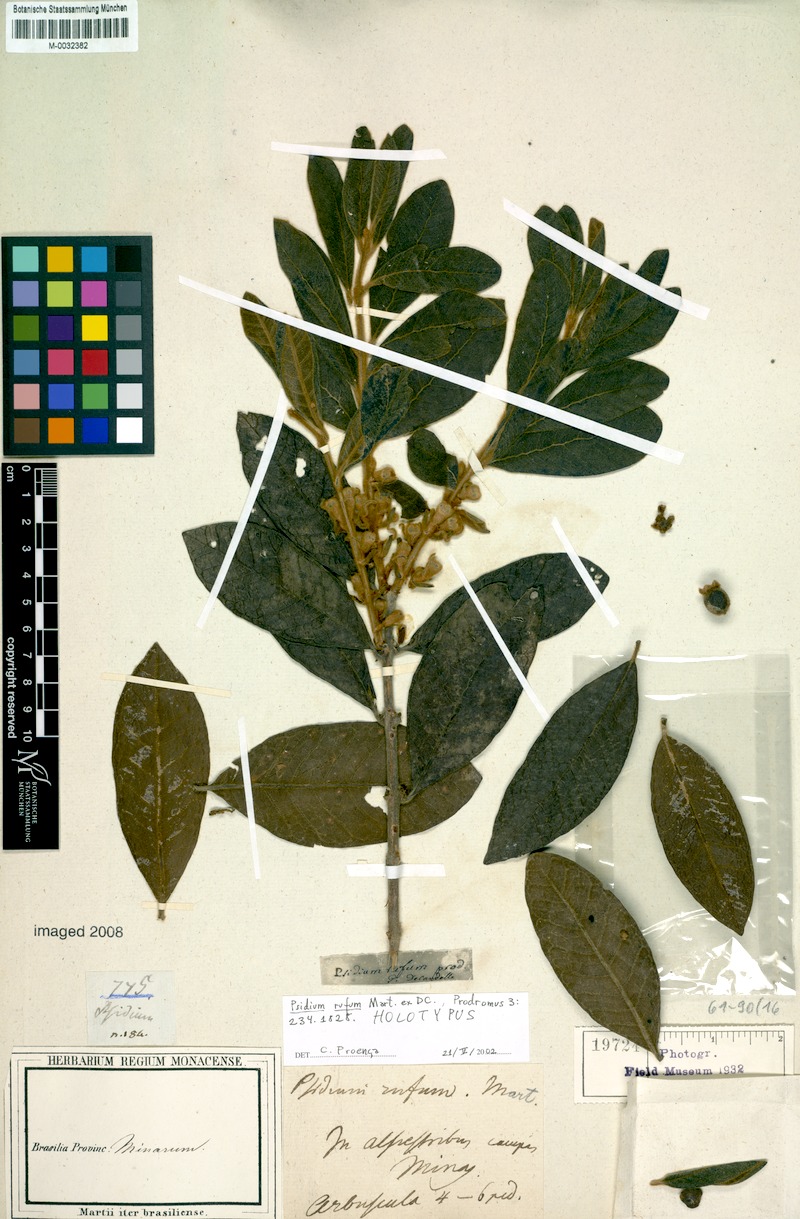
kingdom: Plantae
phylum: Tracheophyta
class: Magnoliopsida
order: Myrtales
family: Myrtaceae
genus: Psidium
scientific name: Psidium rufum
